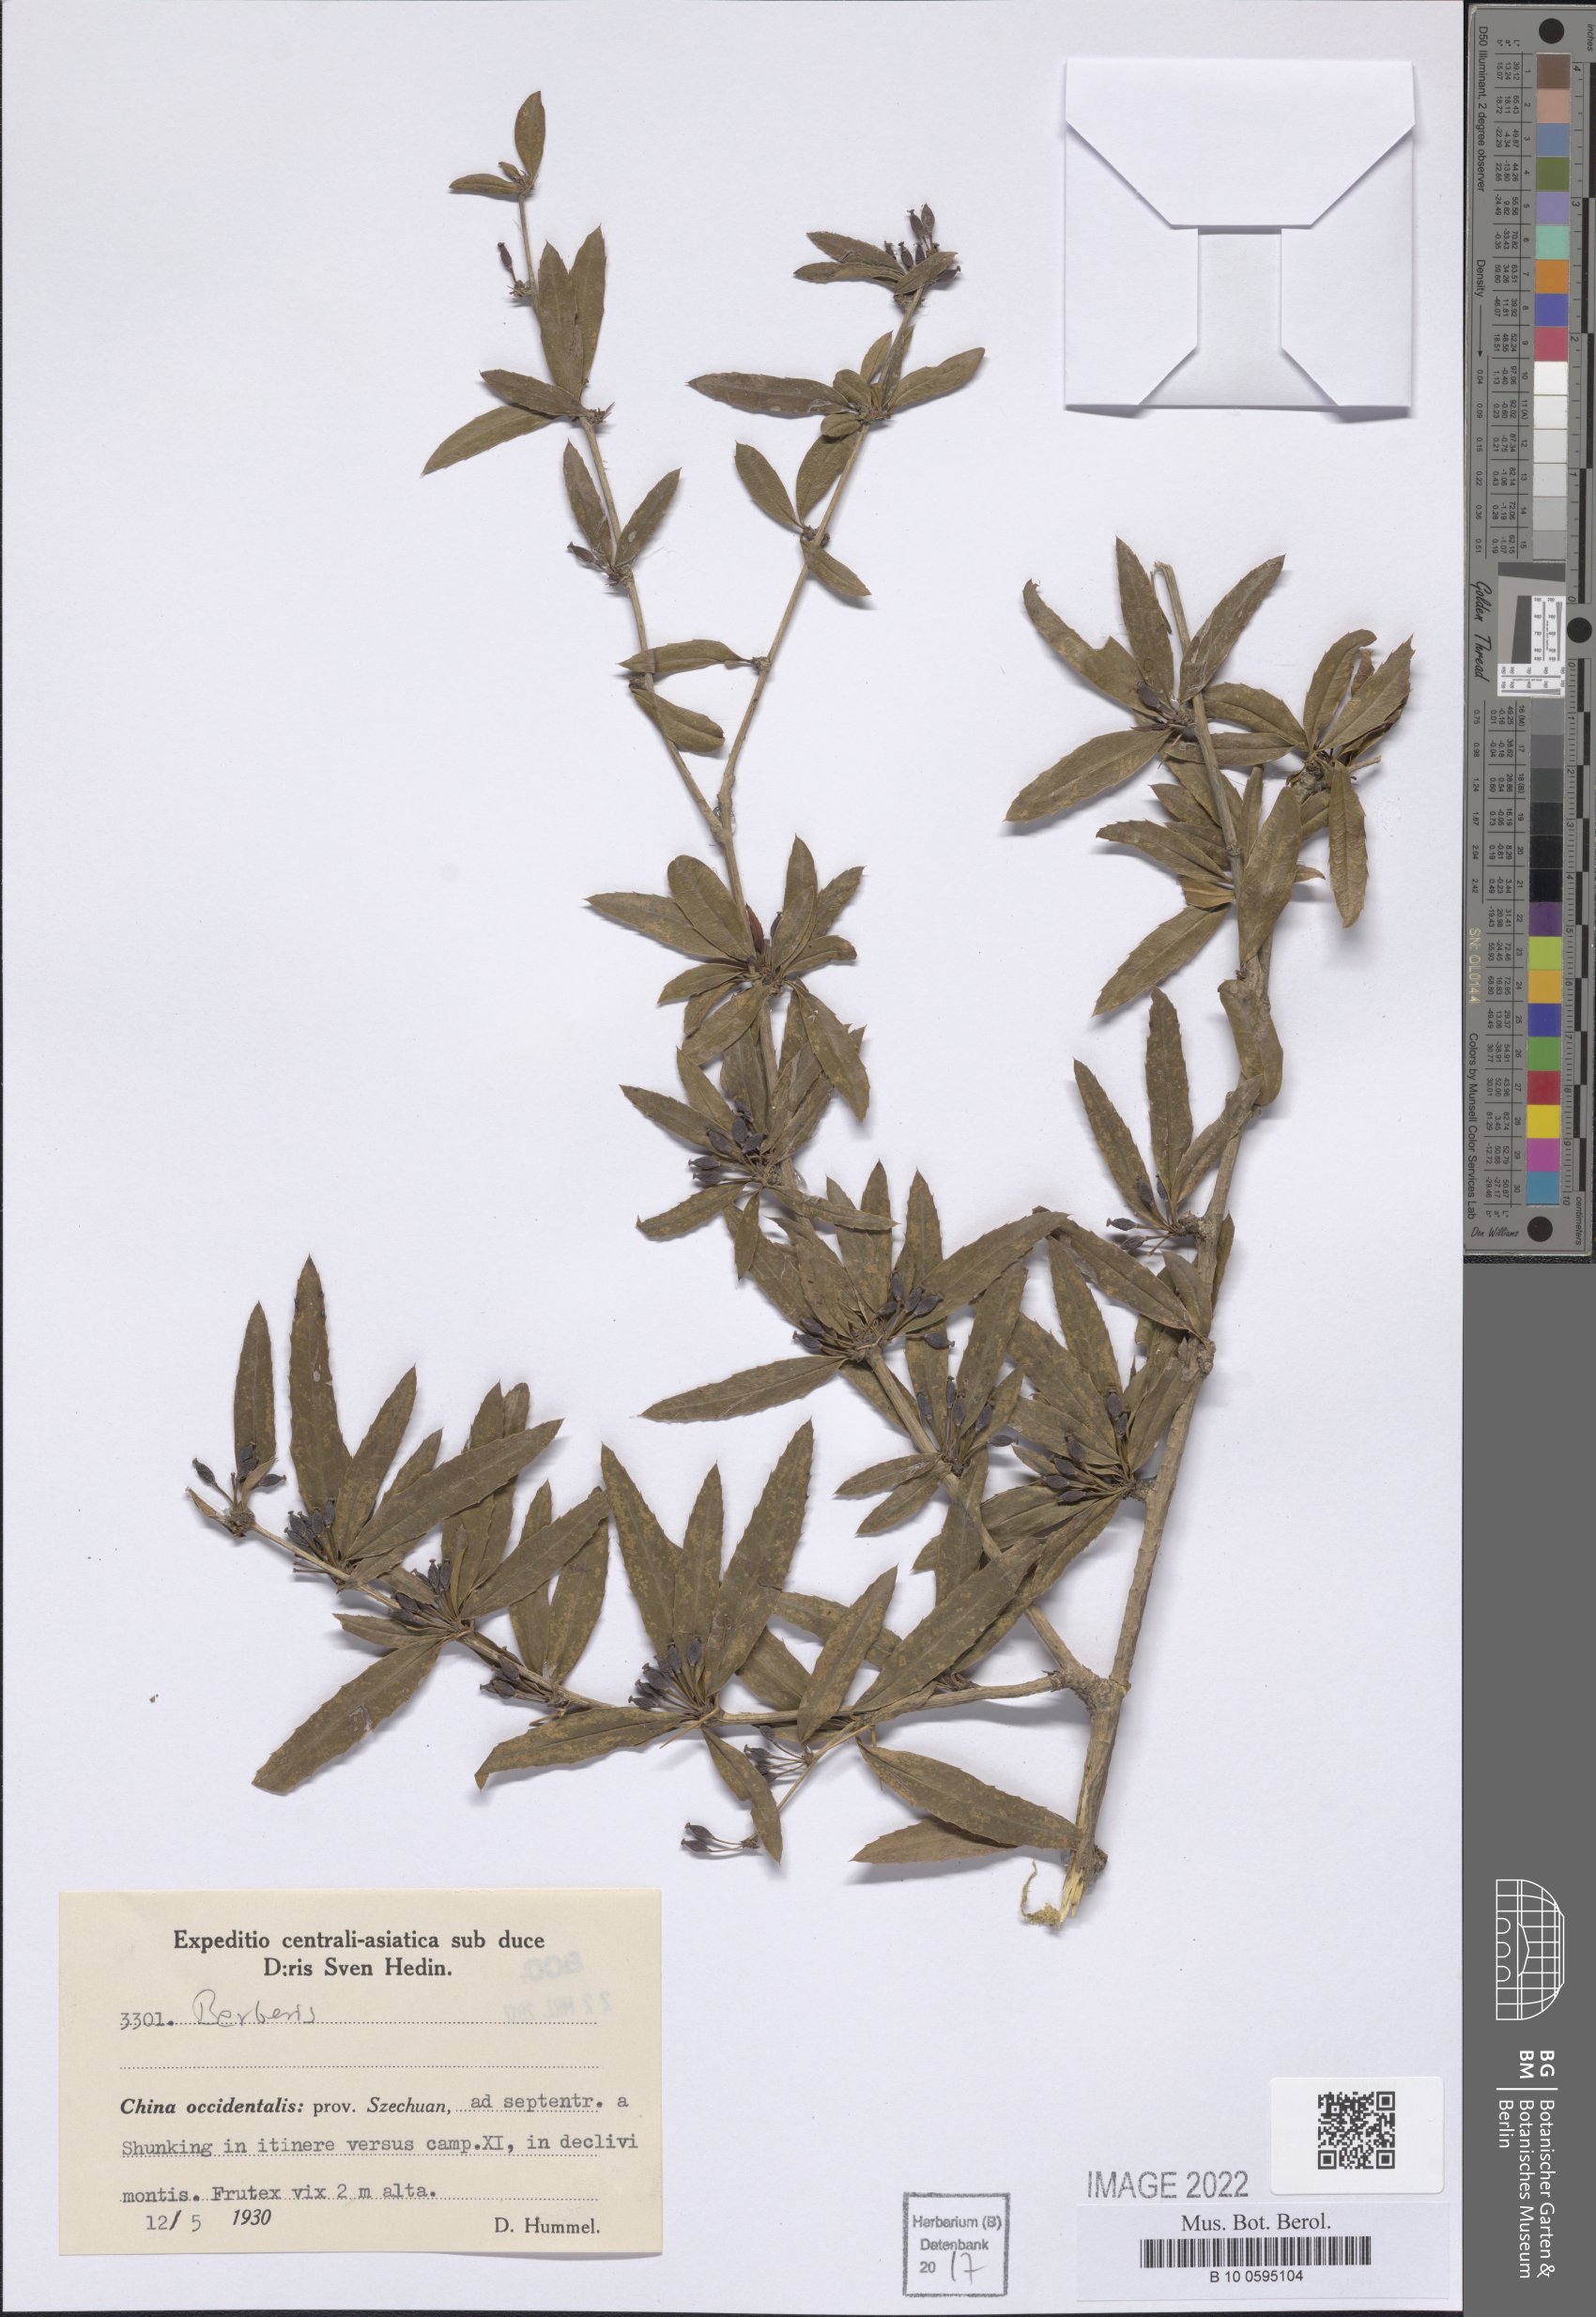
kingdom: Plantae
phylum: Tracheophyta
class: Magnoliopsida
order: Ranunculales
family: Berberidaceae
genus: Berberis
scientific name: Berberis
